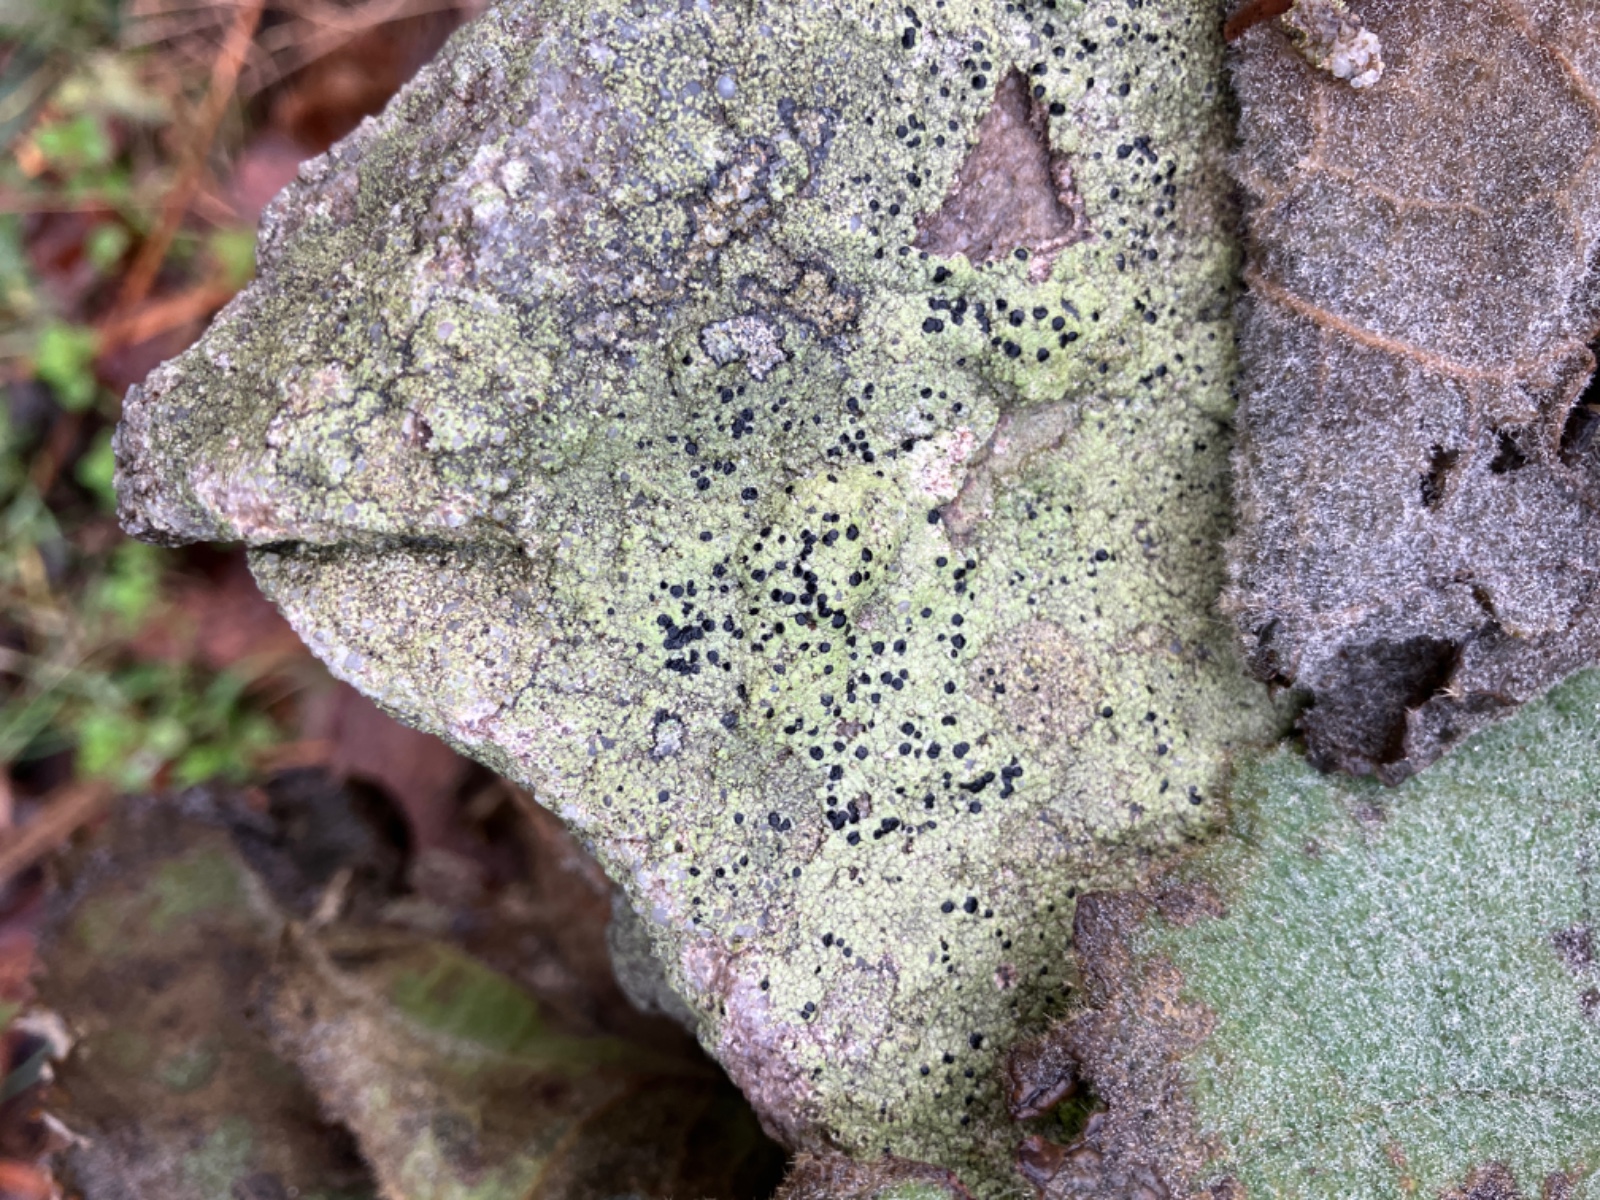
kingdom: Fungi
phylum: Ascomycota
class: Lecanoromycetes
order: Lecanorales
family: Lecanoraceae
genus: Lecidella
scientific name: Lecidella scabra
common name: skurvet skivelav
